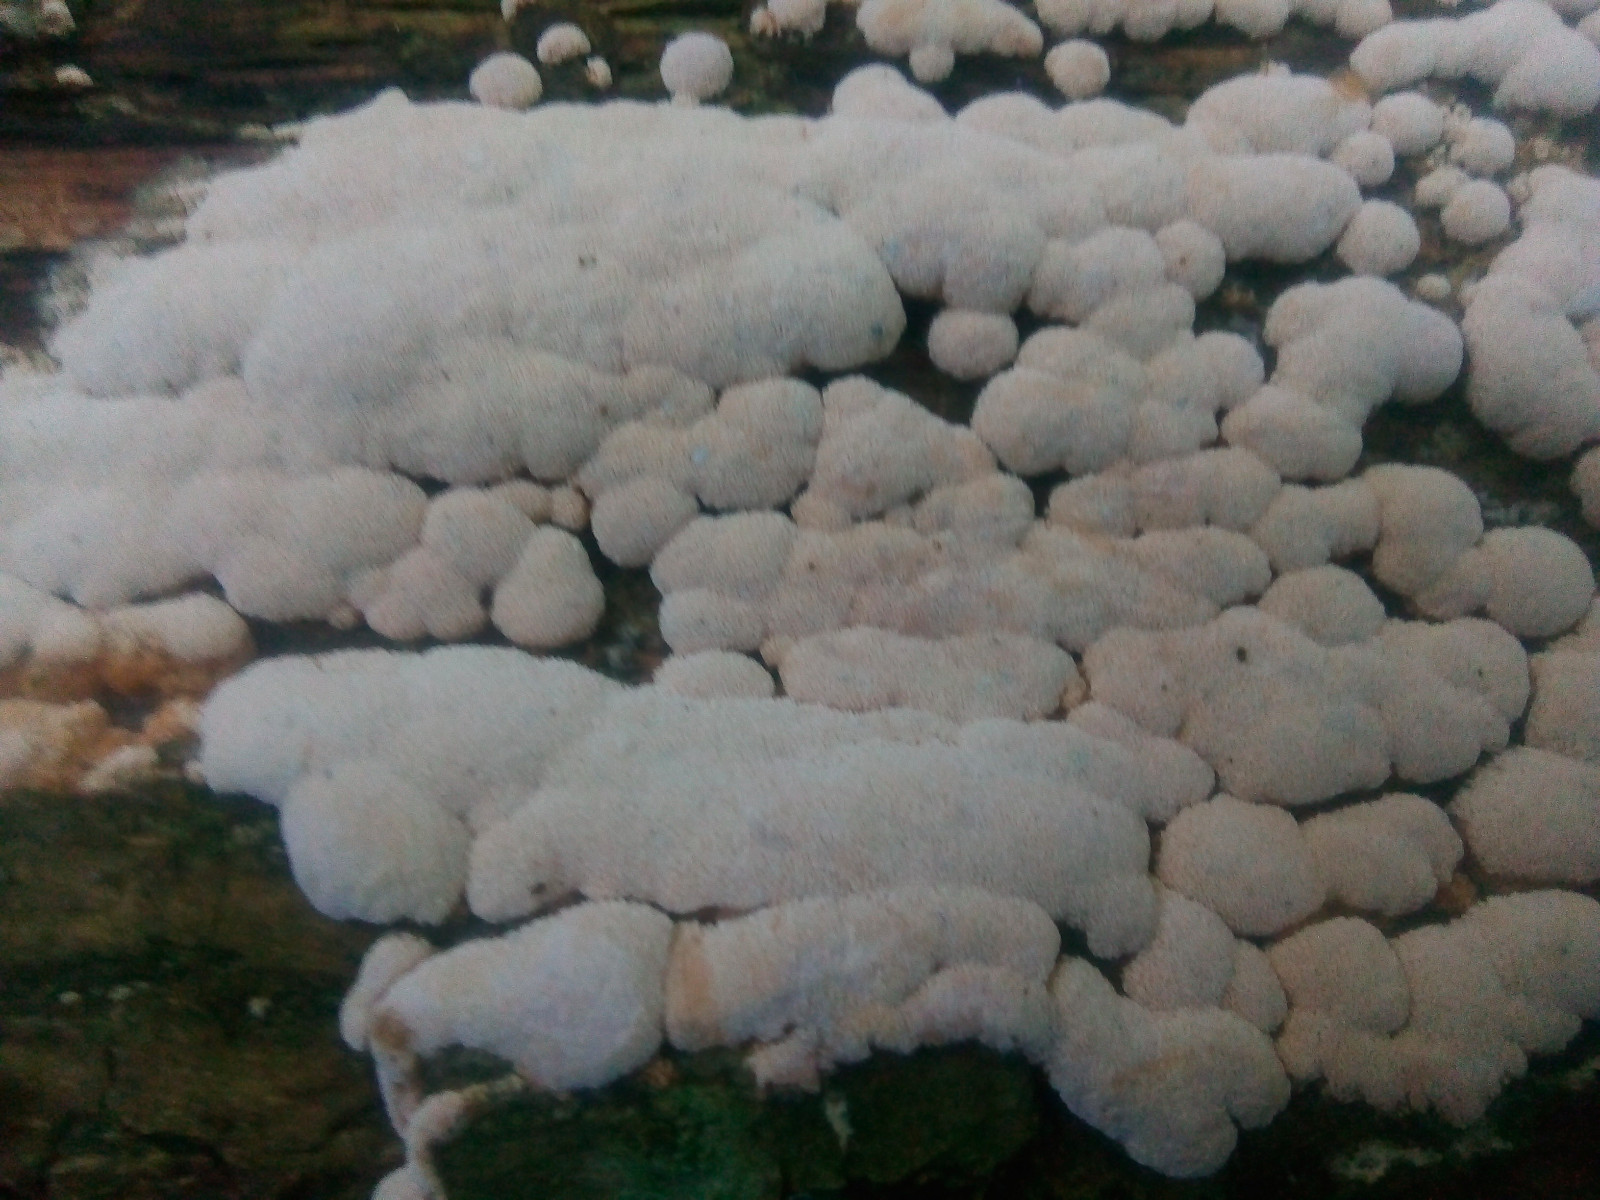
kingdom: Fungi
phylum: Basidiomycota
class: Agaricomycetes
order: Hymenochaetales
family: Schizoporaceae
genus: Xylodon
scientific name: Xylodon flaviporus
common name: gulporet tandsvamp
